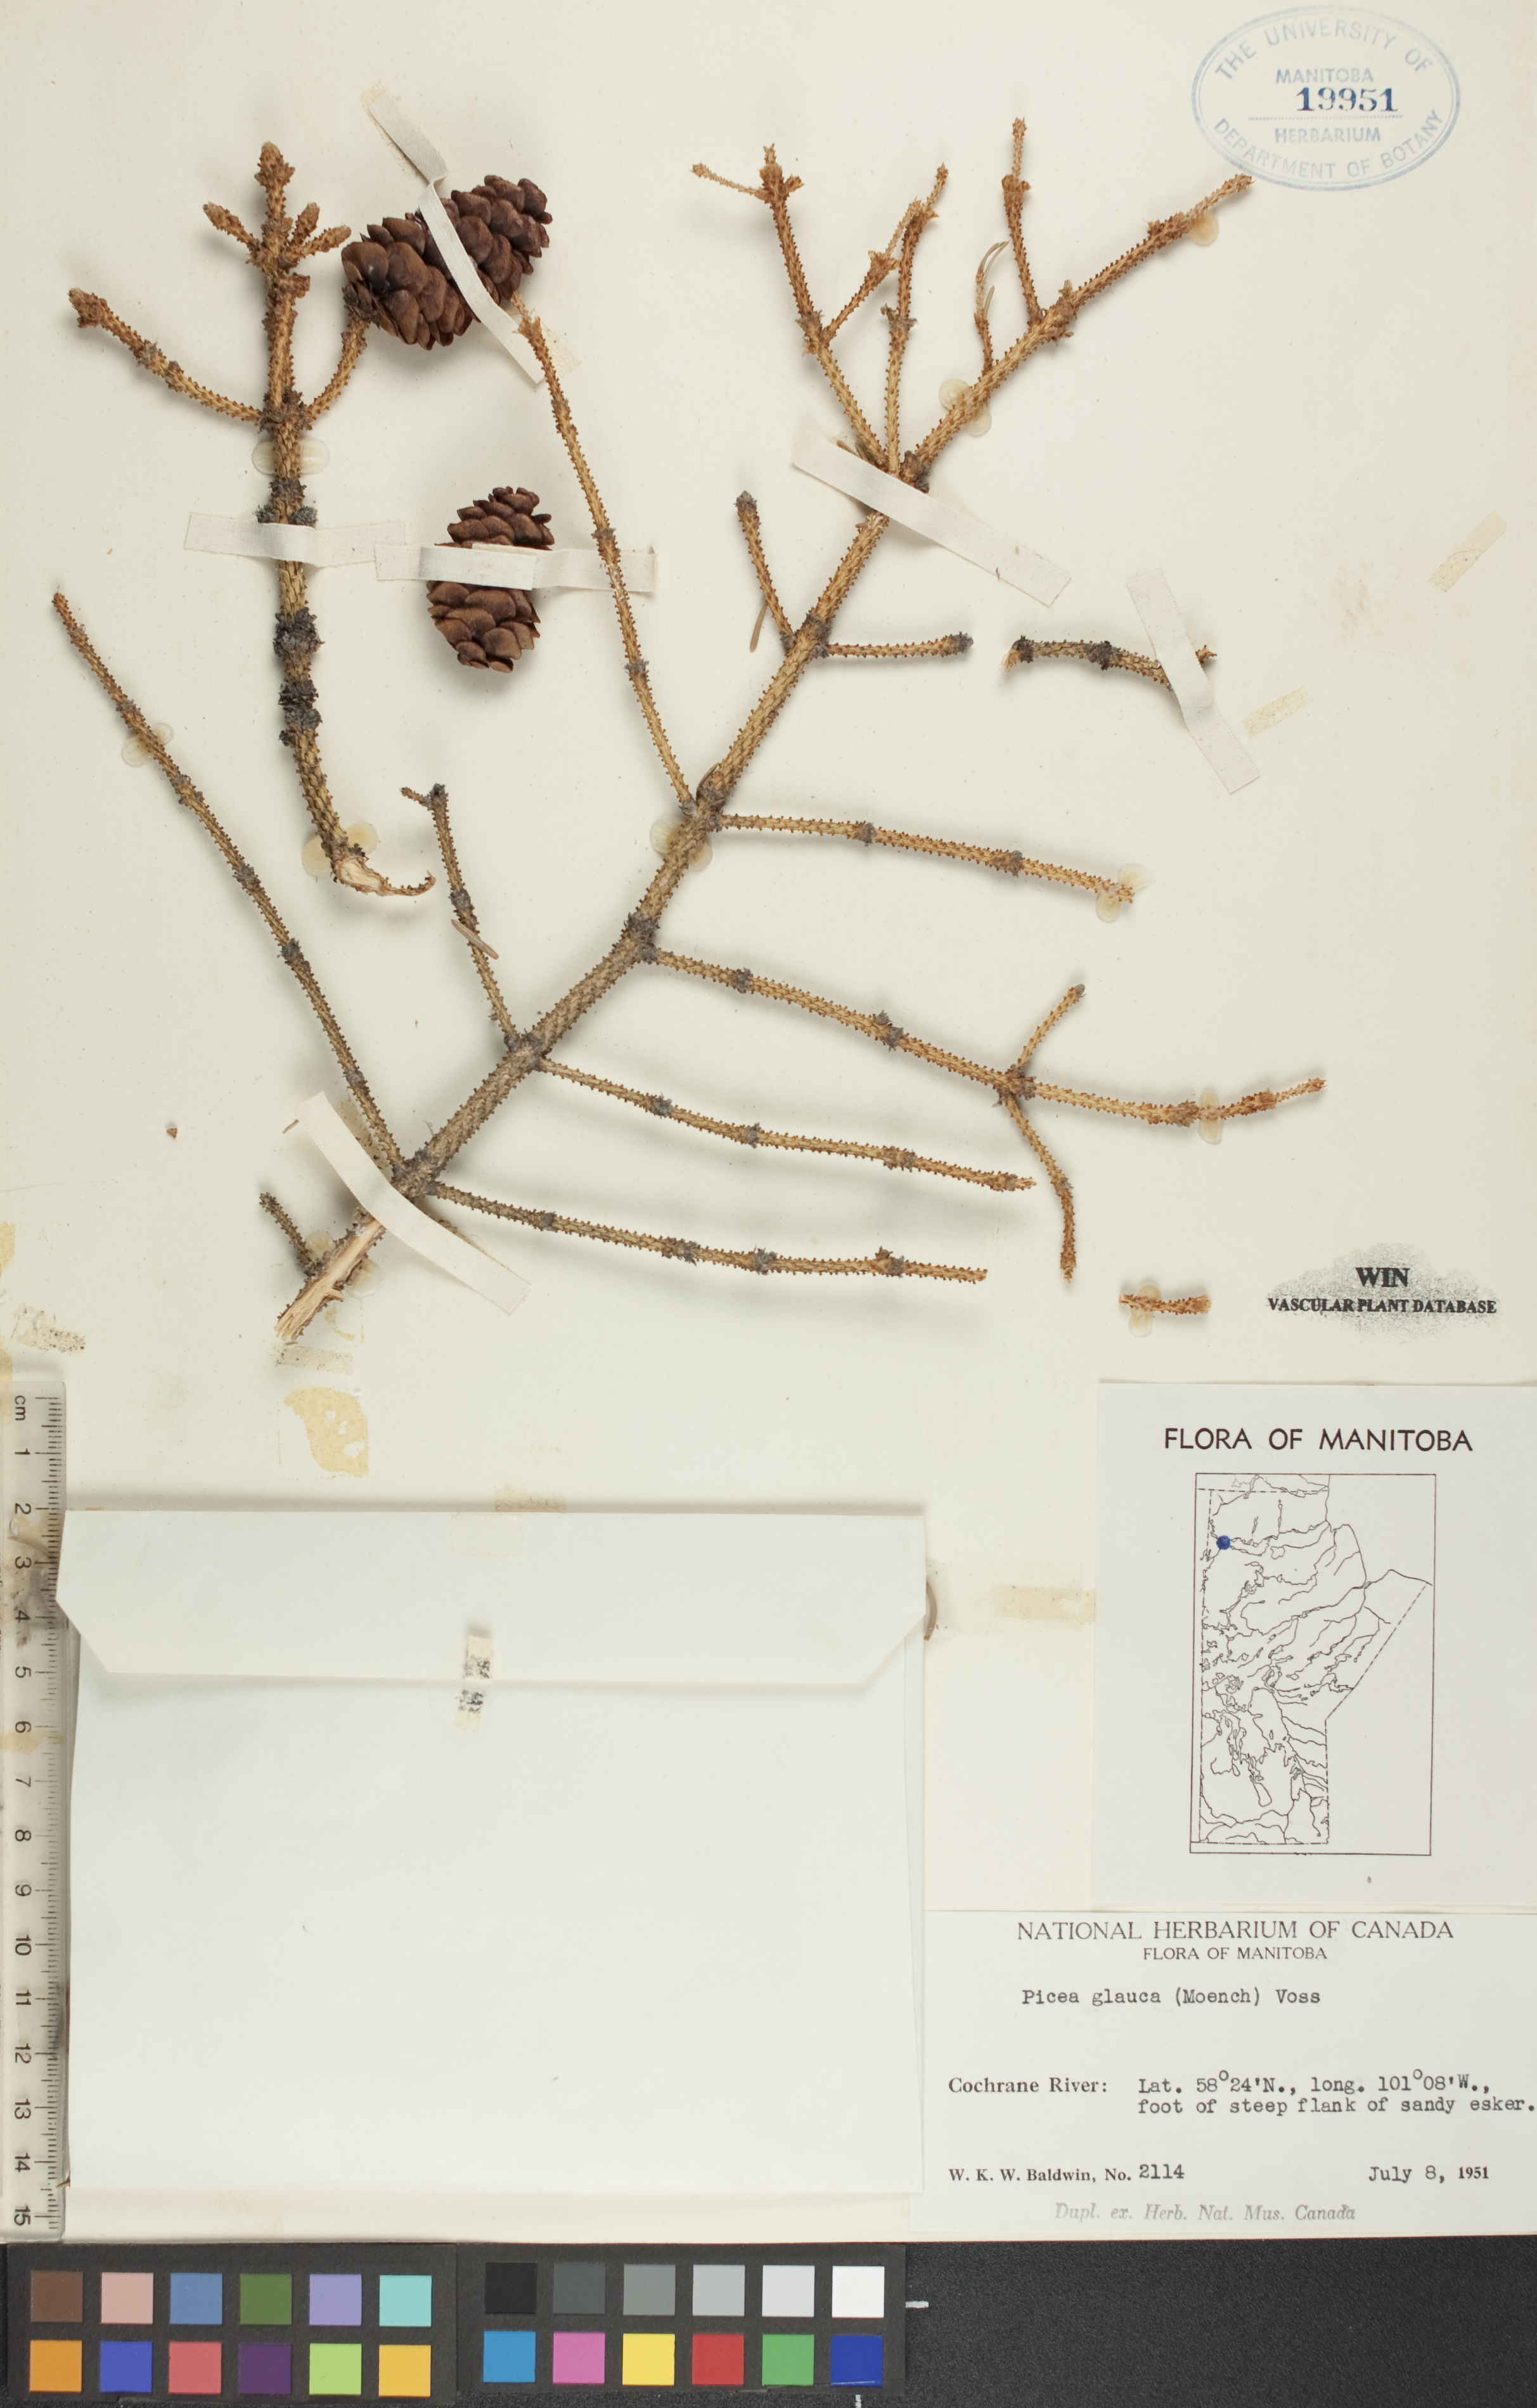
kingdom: Plantae
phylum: Tracheophyta
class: Pinopsida
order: Pinales
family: Pinaceae
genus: Picea
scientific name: Picea glauca
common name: White spruce
